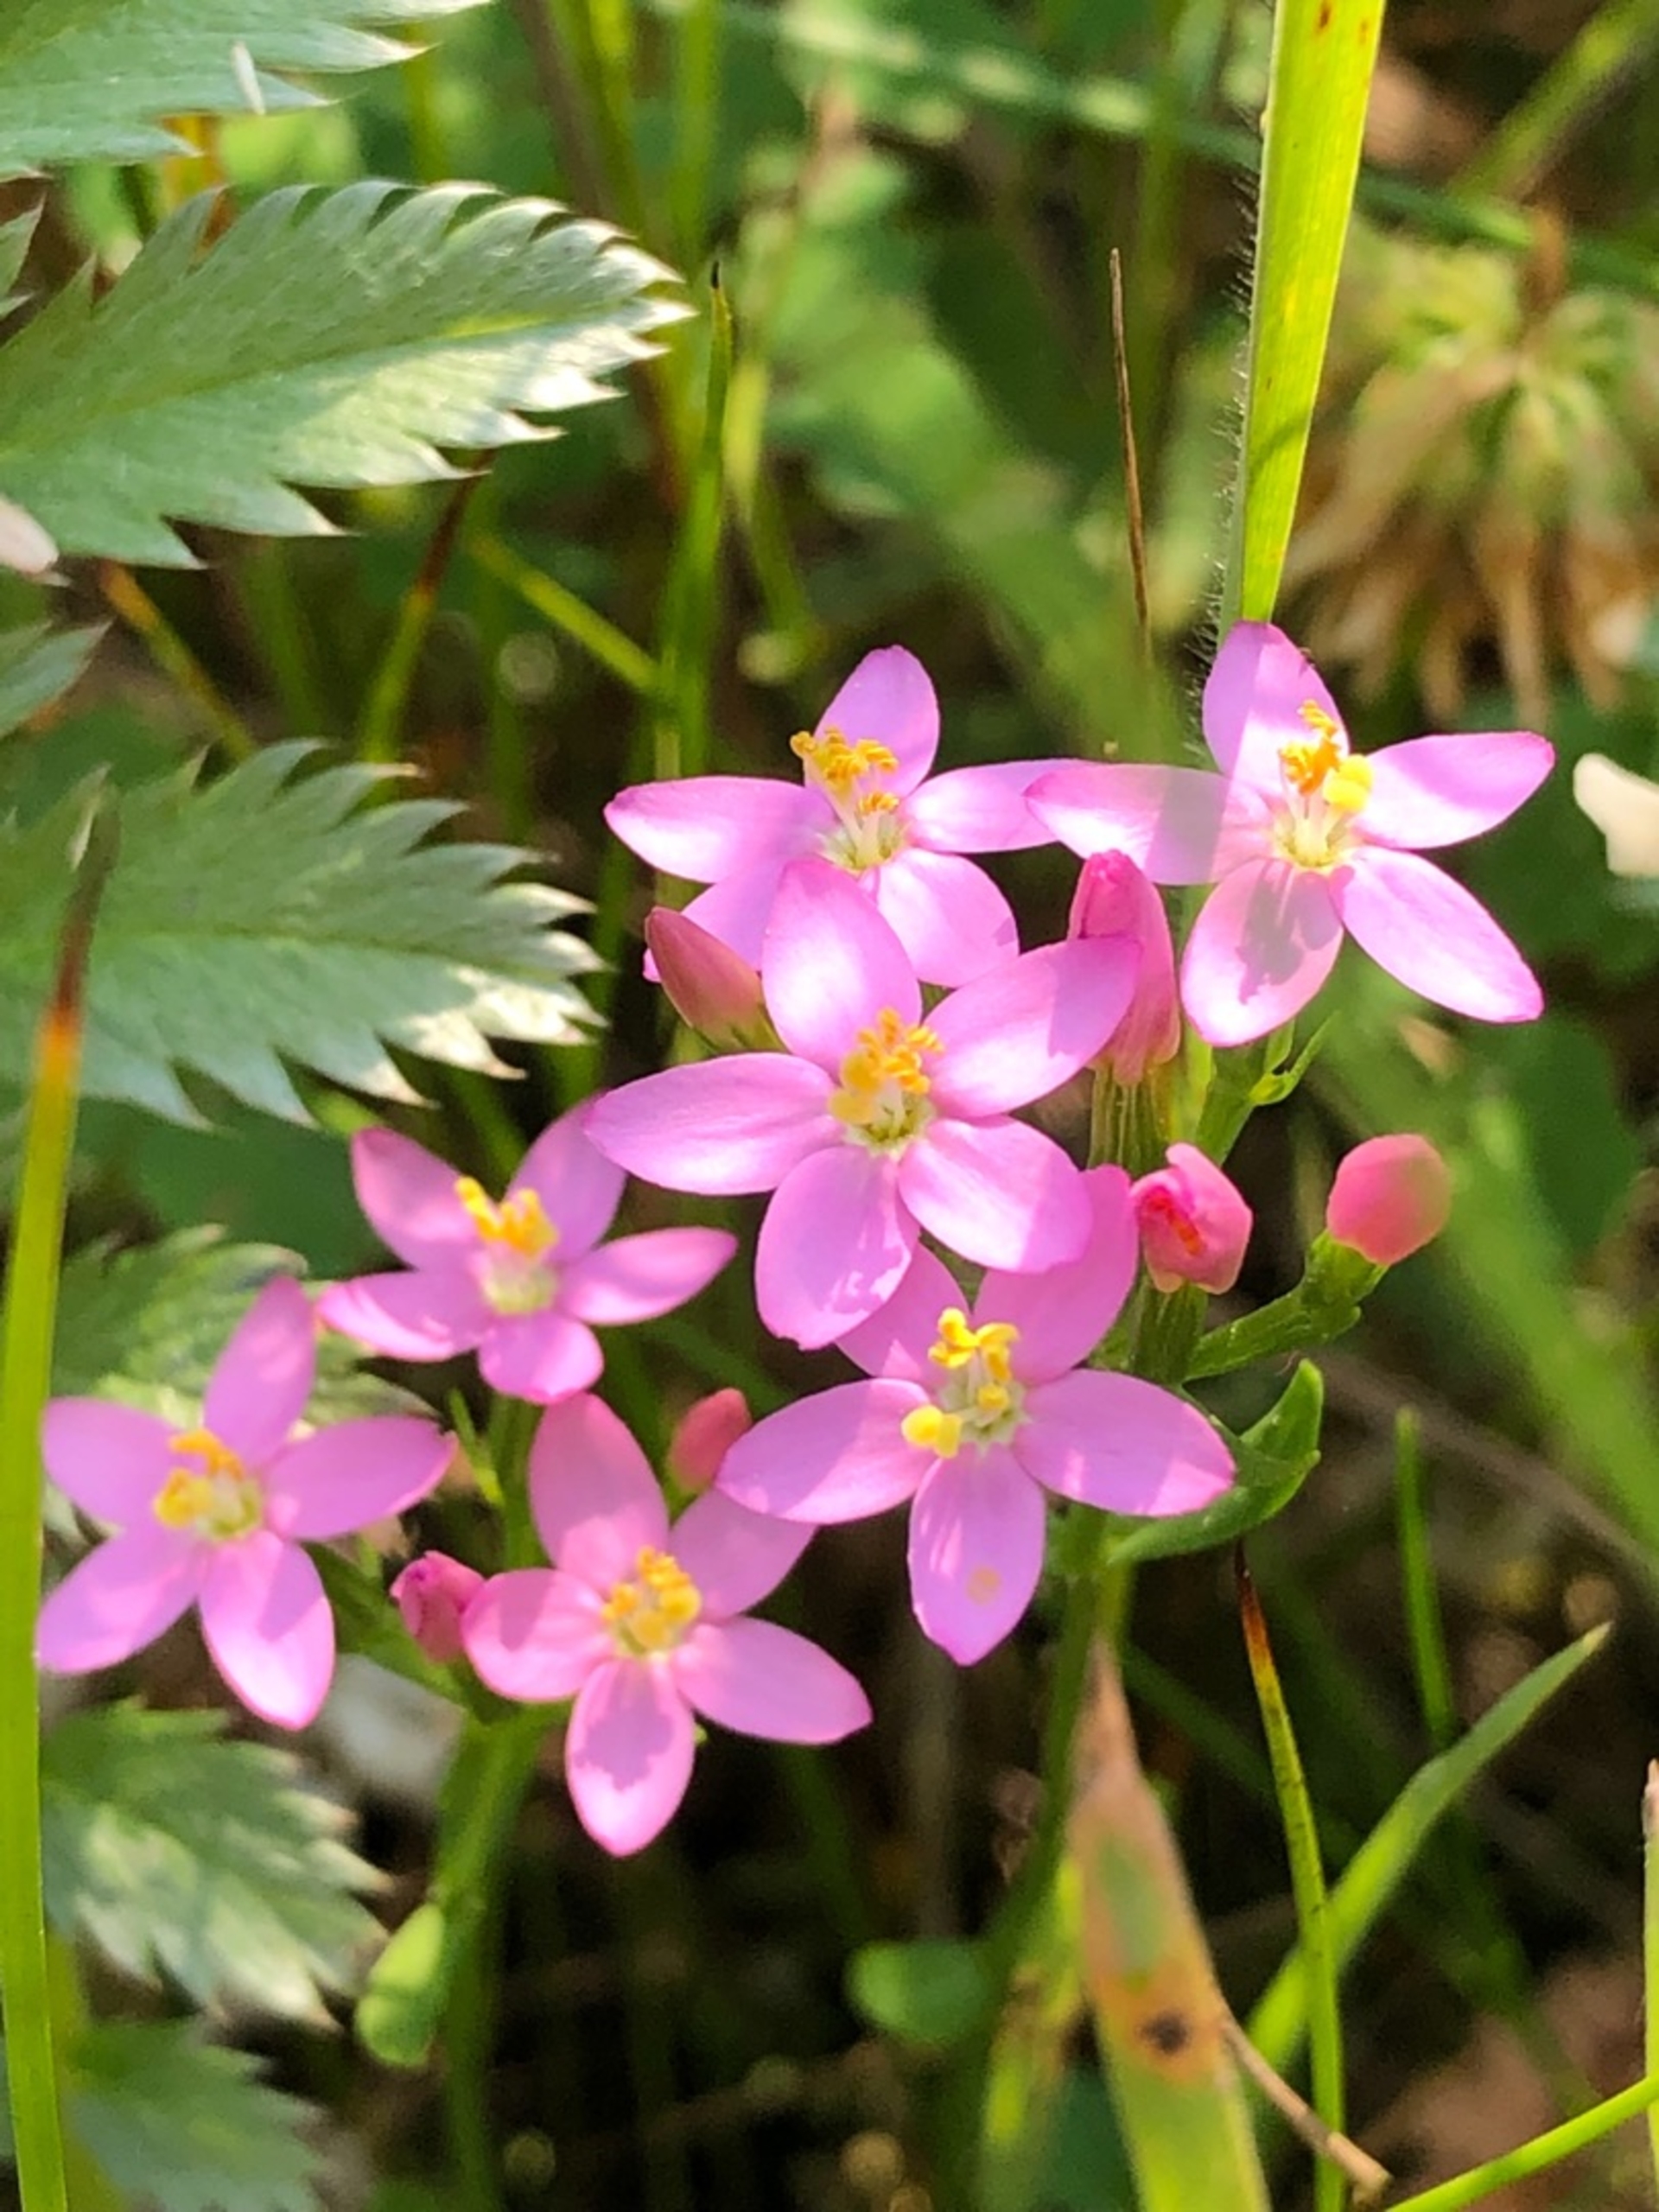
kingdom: Plantae
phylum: Tracheophyta
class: Magnoliopsida
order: Gentianales
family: Gentianaceae
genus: Centaurium
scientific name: Centaurium erythraea
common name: Mark-tusindgylden
